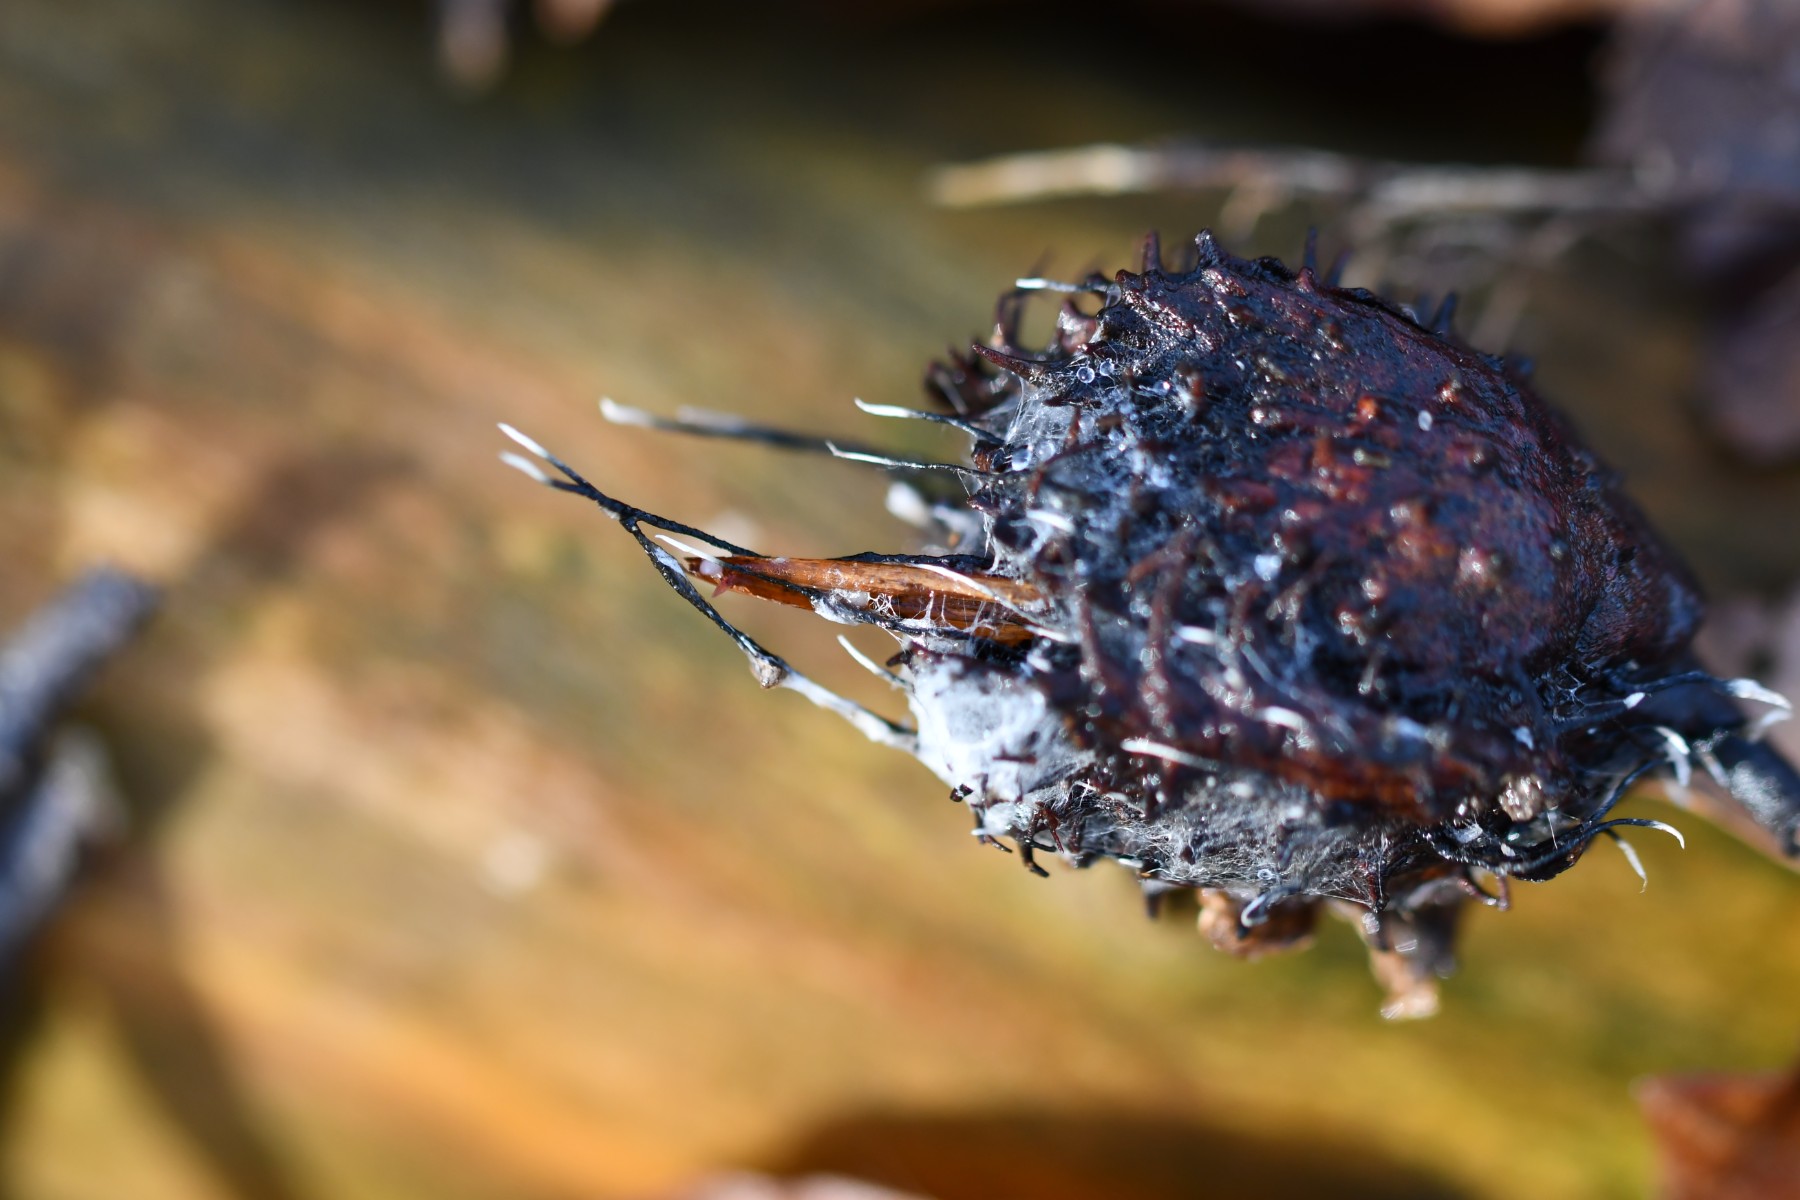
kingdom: Fungi
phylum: Ascomycota
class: Sordariomycetes
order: Xylariales
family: Xylariaceae
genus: Xylaria
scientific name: Xylaria carpophila
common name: bogskål-stødsvamp
